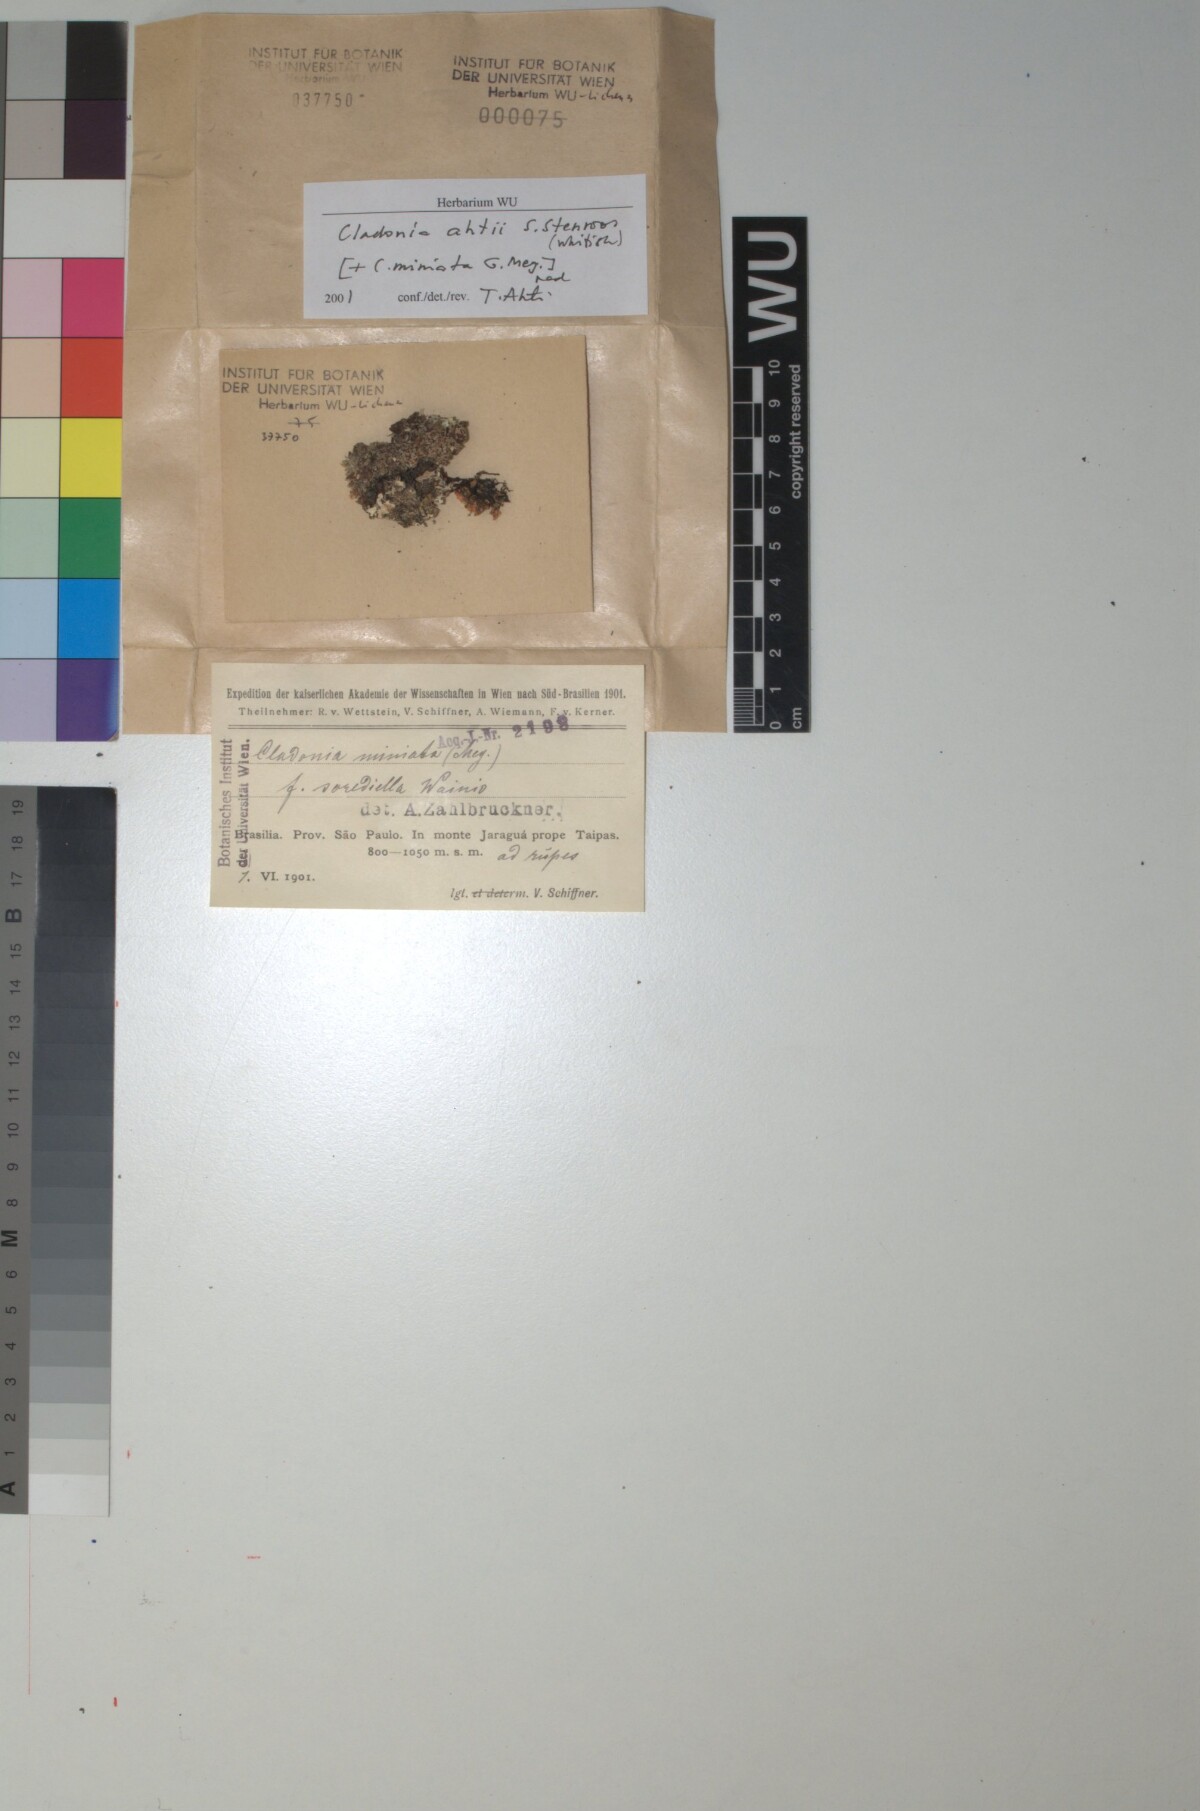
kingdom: Fungi
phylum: Ascomycota
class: Lecanoromycetes
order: Lecanorales
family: Cladoniaceae
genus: Cladonia
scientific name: Cladonia ahtii
